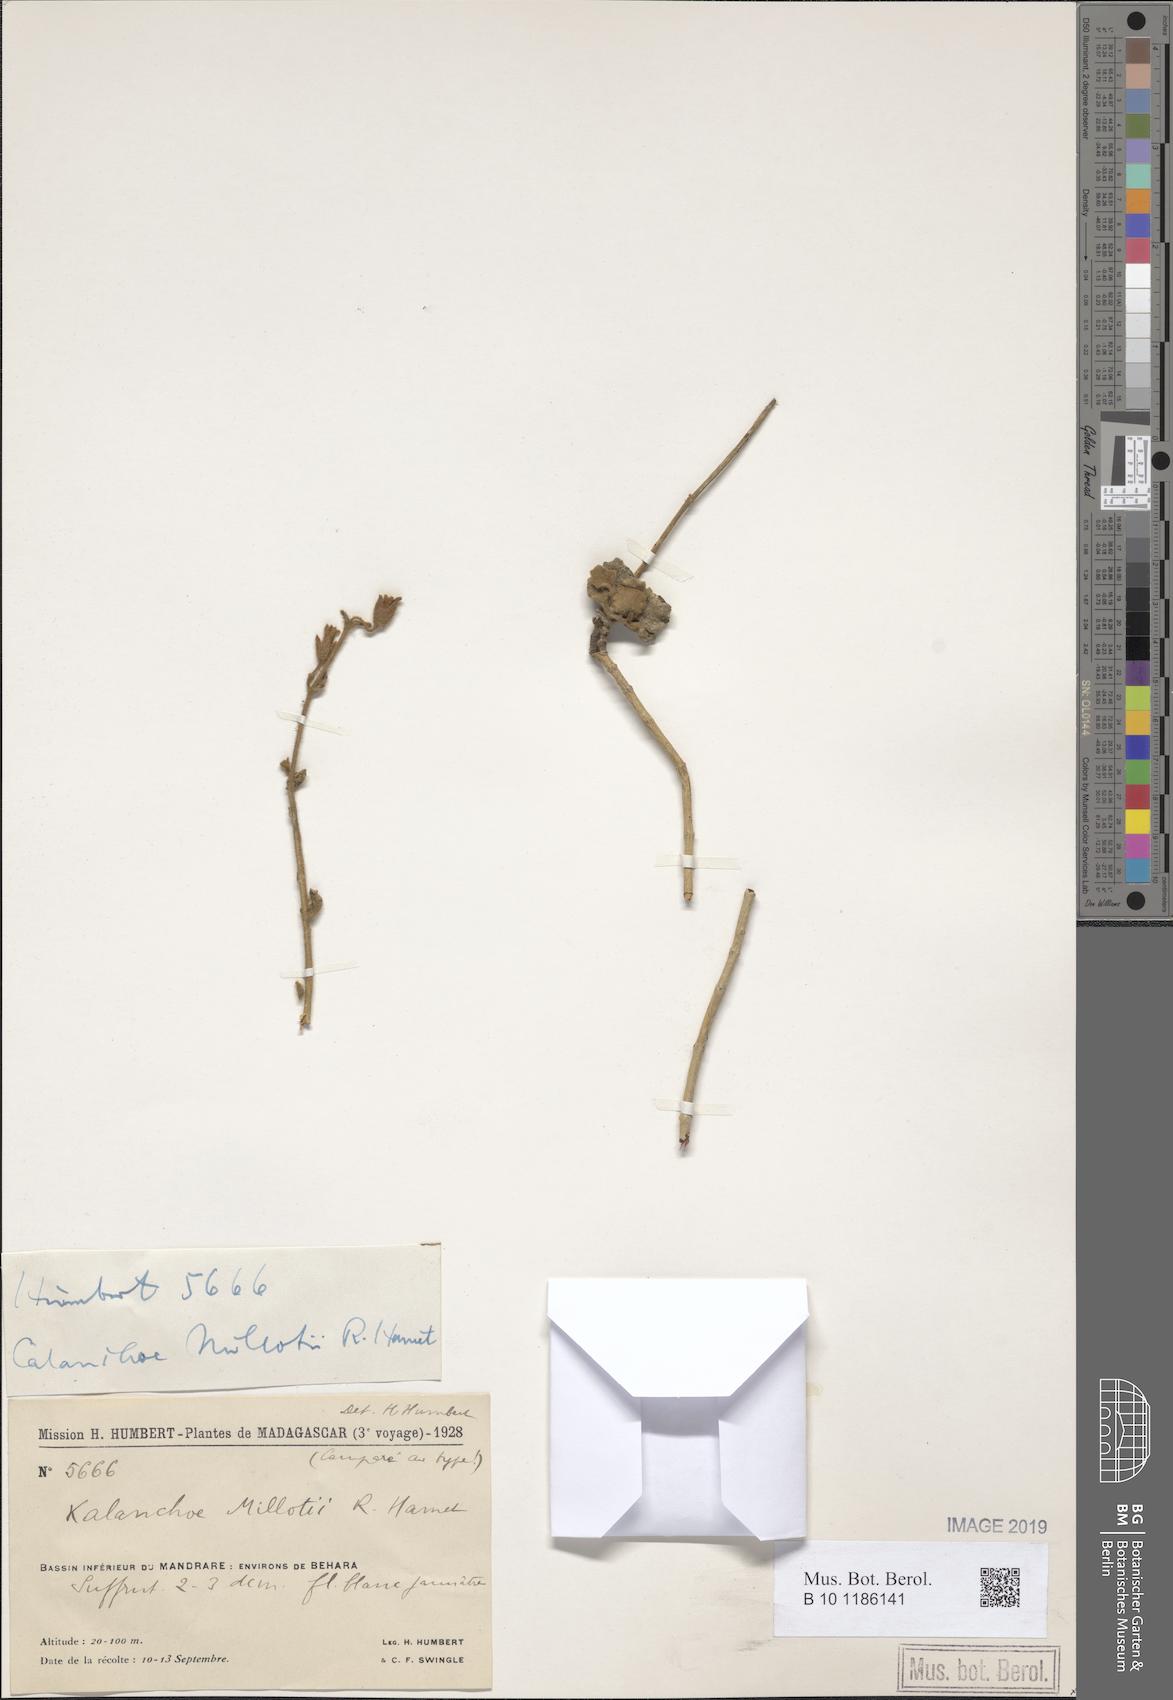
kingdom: Plantae
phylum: Tracheophyta
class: Magnoliopsida
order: Saxifragales
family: Crassulaceae
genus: Kalanchoe
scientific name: Kalanchoe millotii
